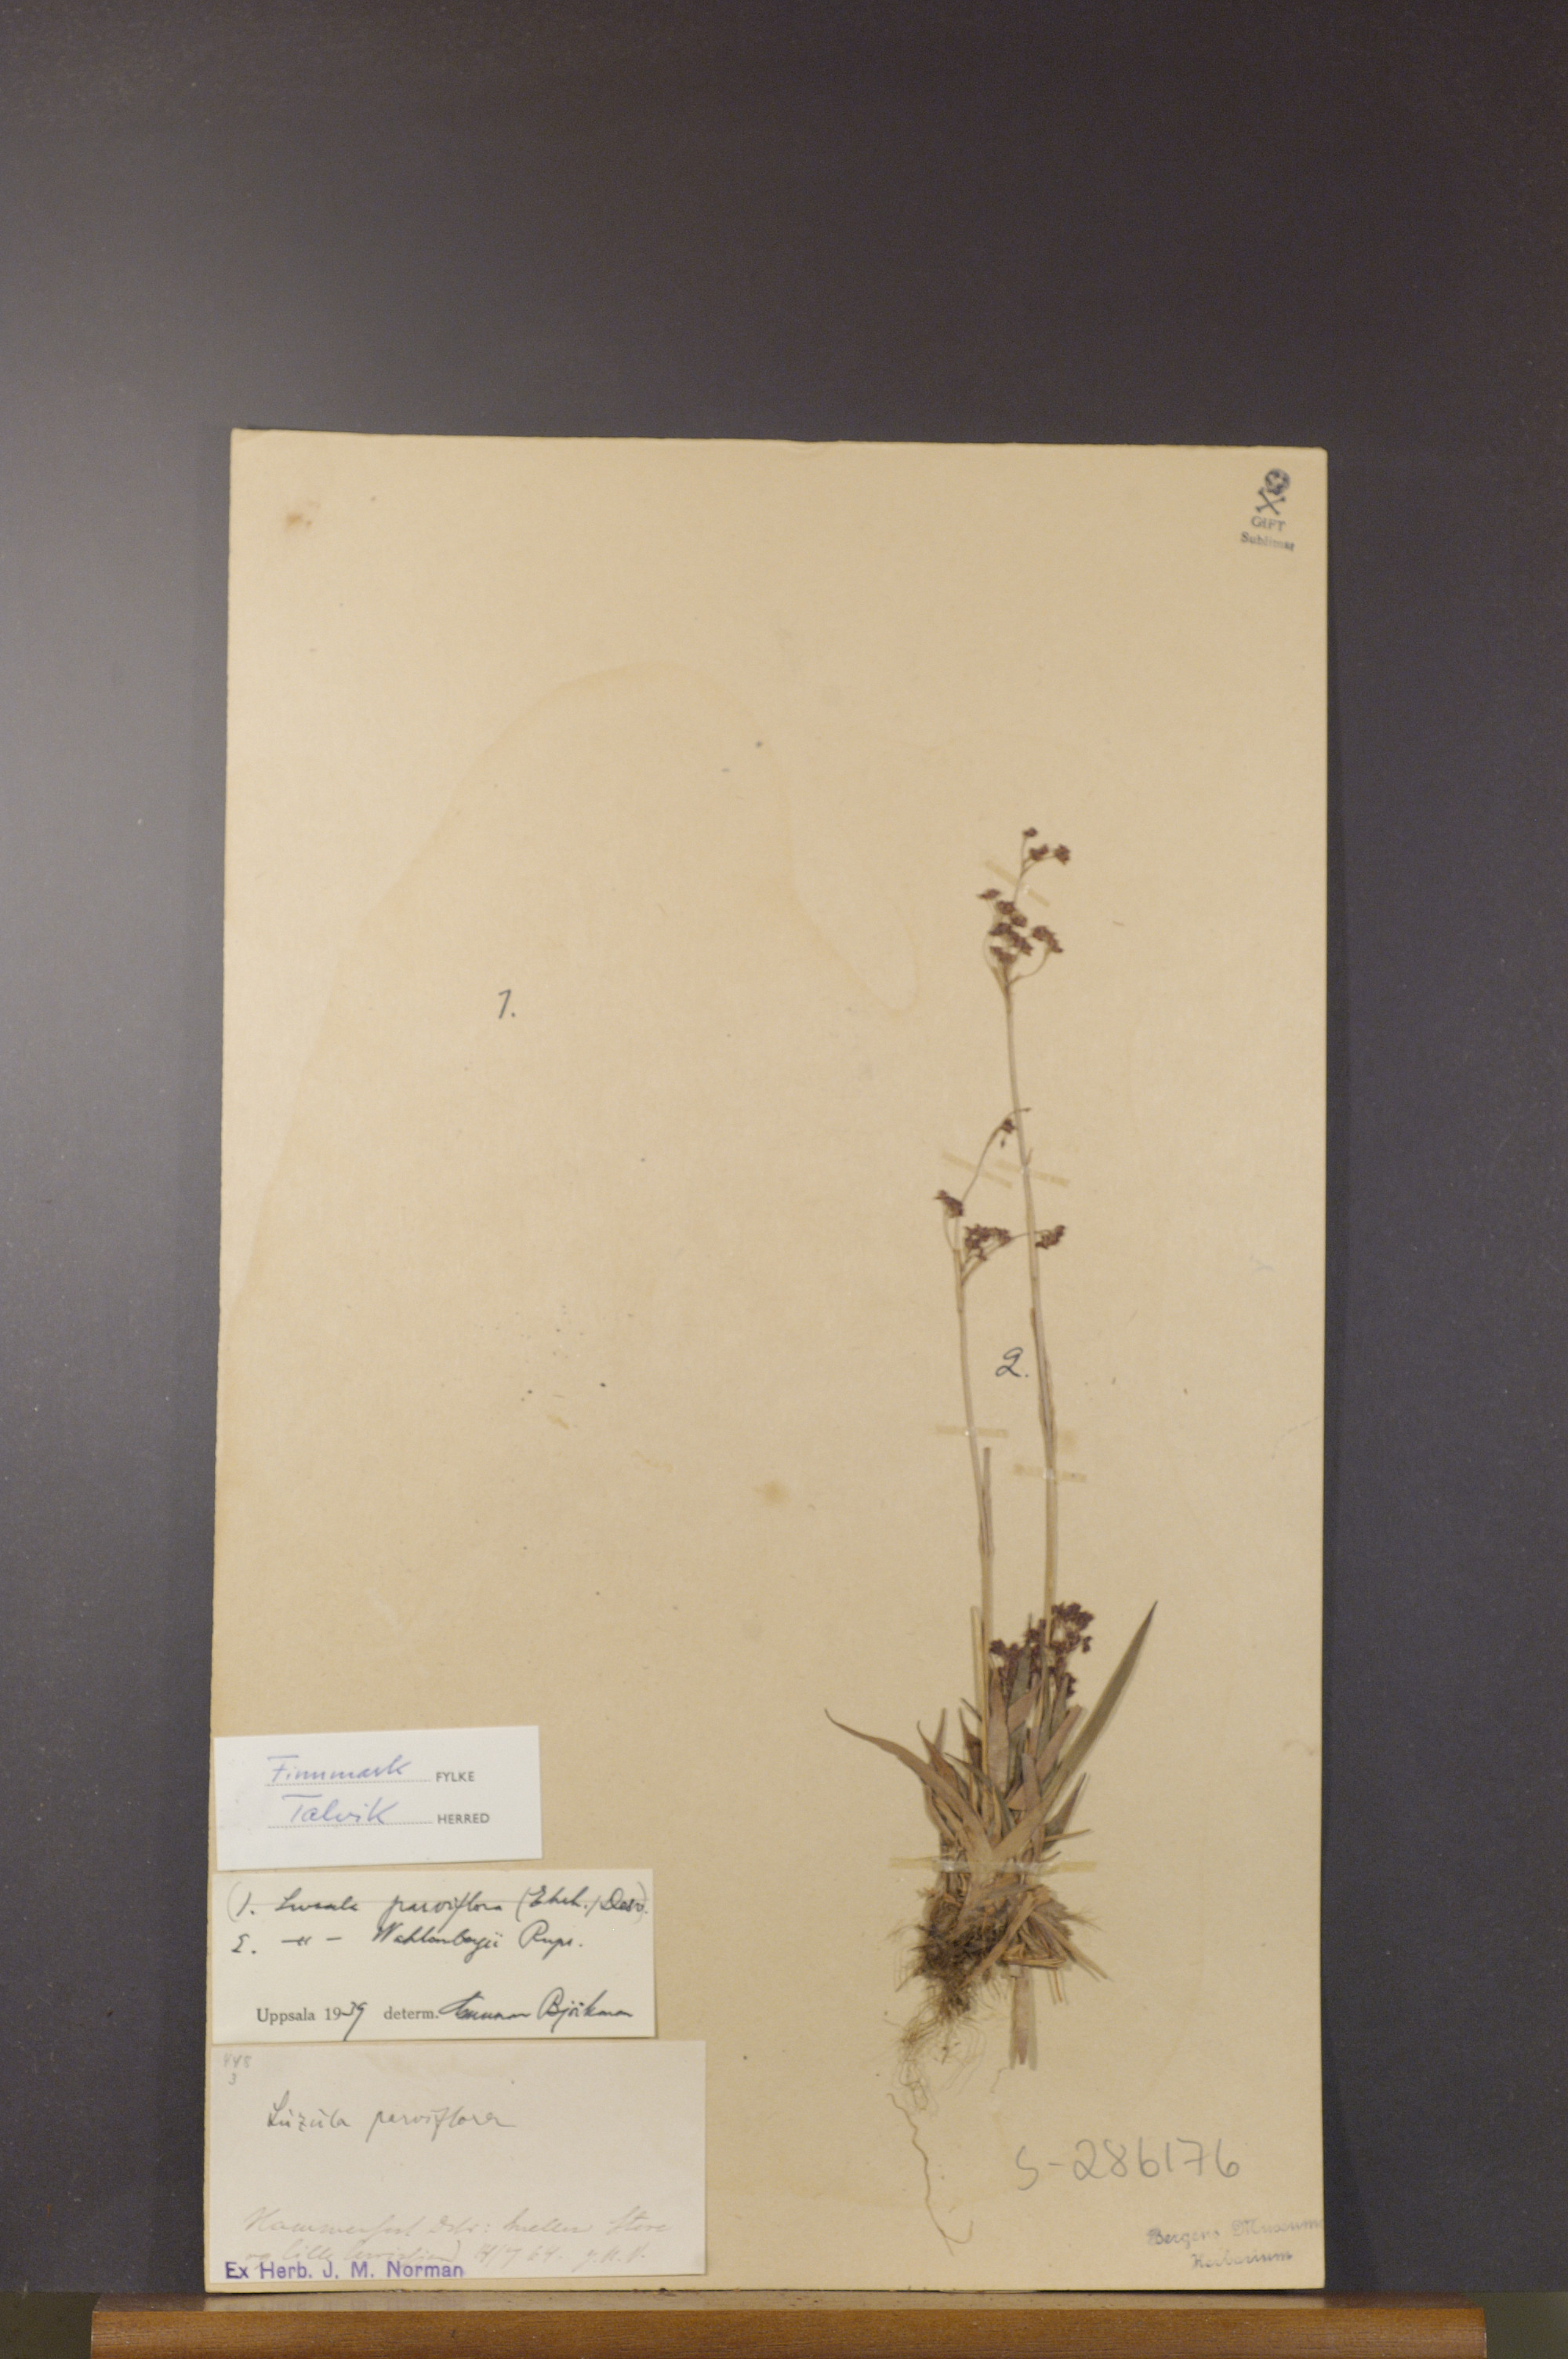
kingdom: Plantae
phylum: Tracheophyta
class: Liliopsida
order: Poales
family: Juncaceae
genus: Luzula
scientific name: Luzula wahlenbergii
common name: Wahlenberg's wood-rush
